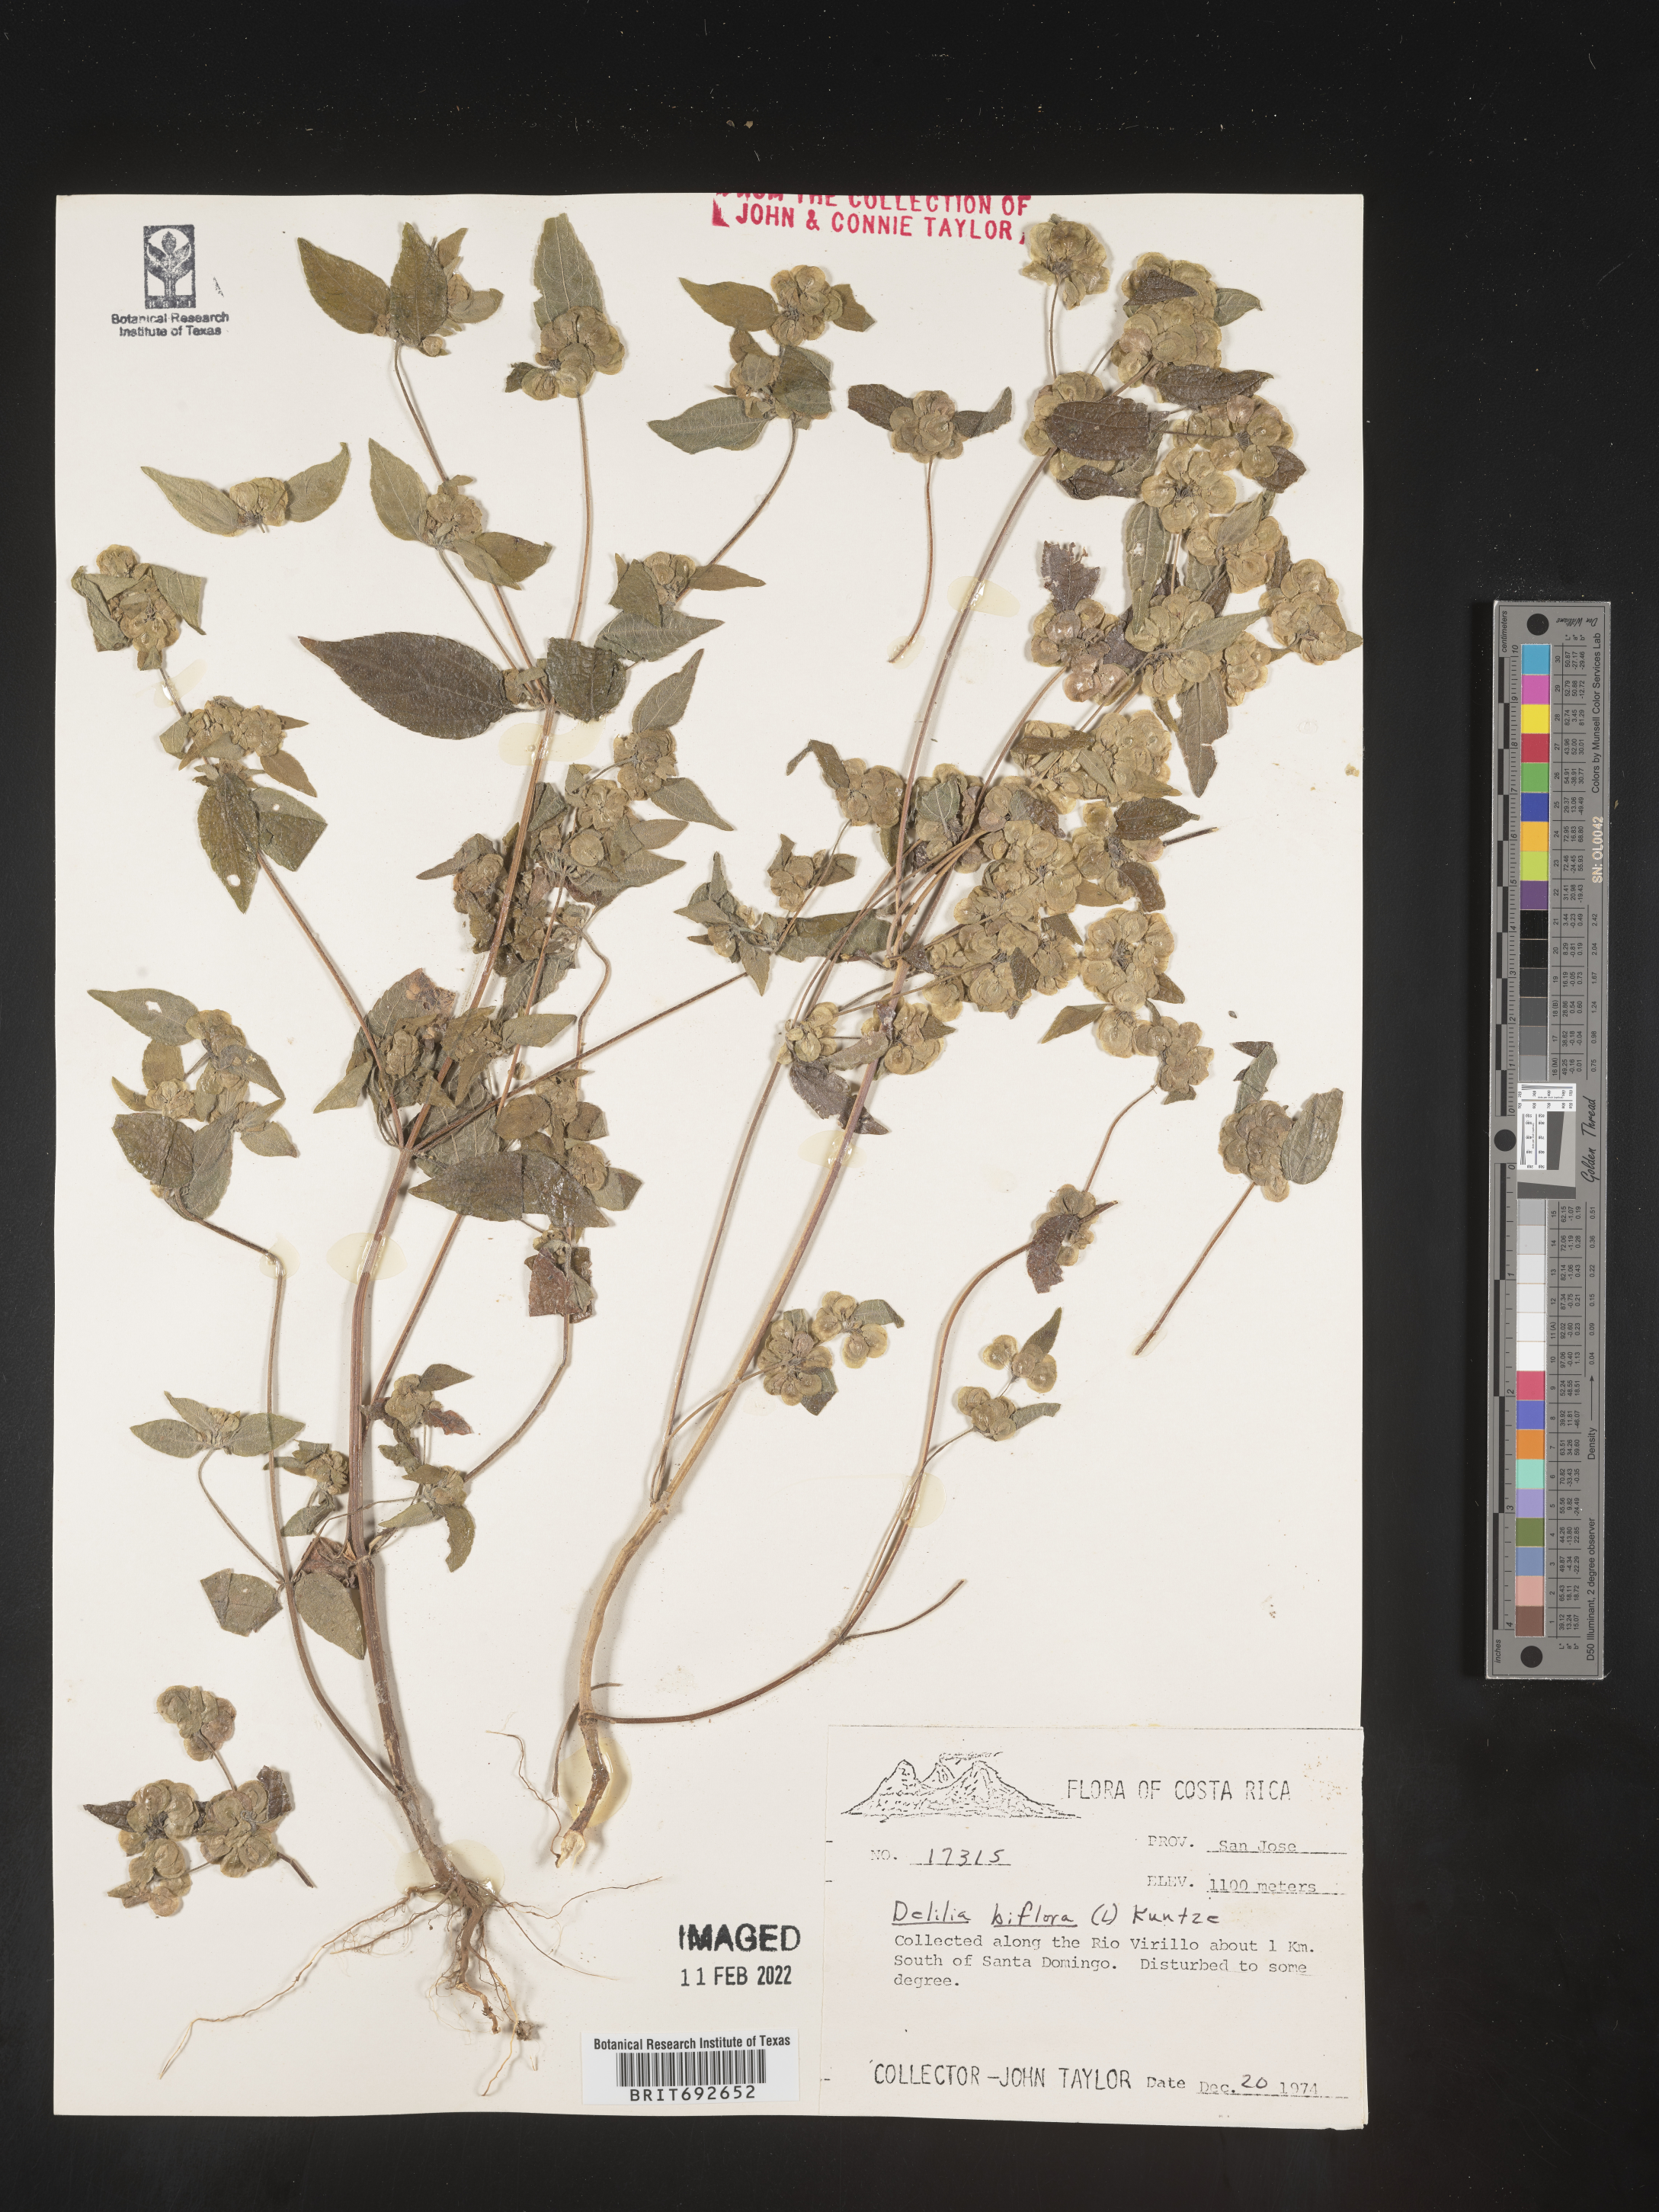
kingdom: Plantae
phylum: Tracheophyta
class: Magnoliopsida
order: Asterales
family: Asteraceae
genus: Delilia
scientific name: Delilia
